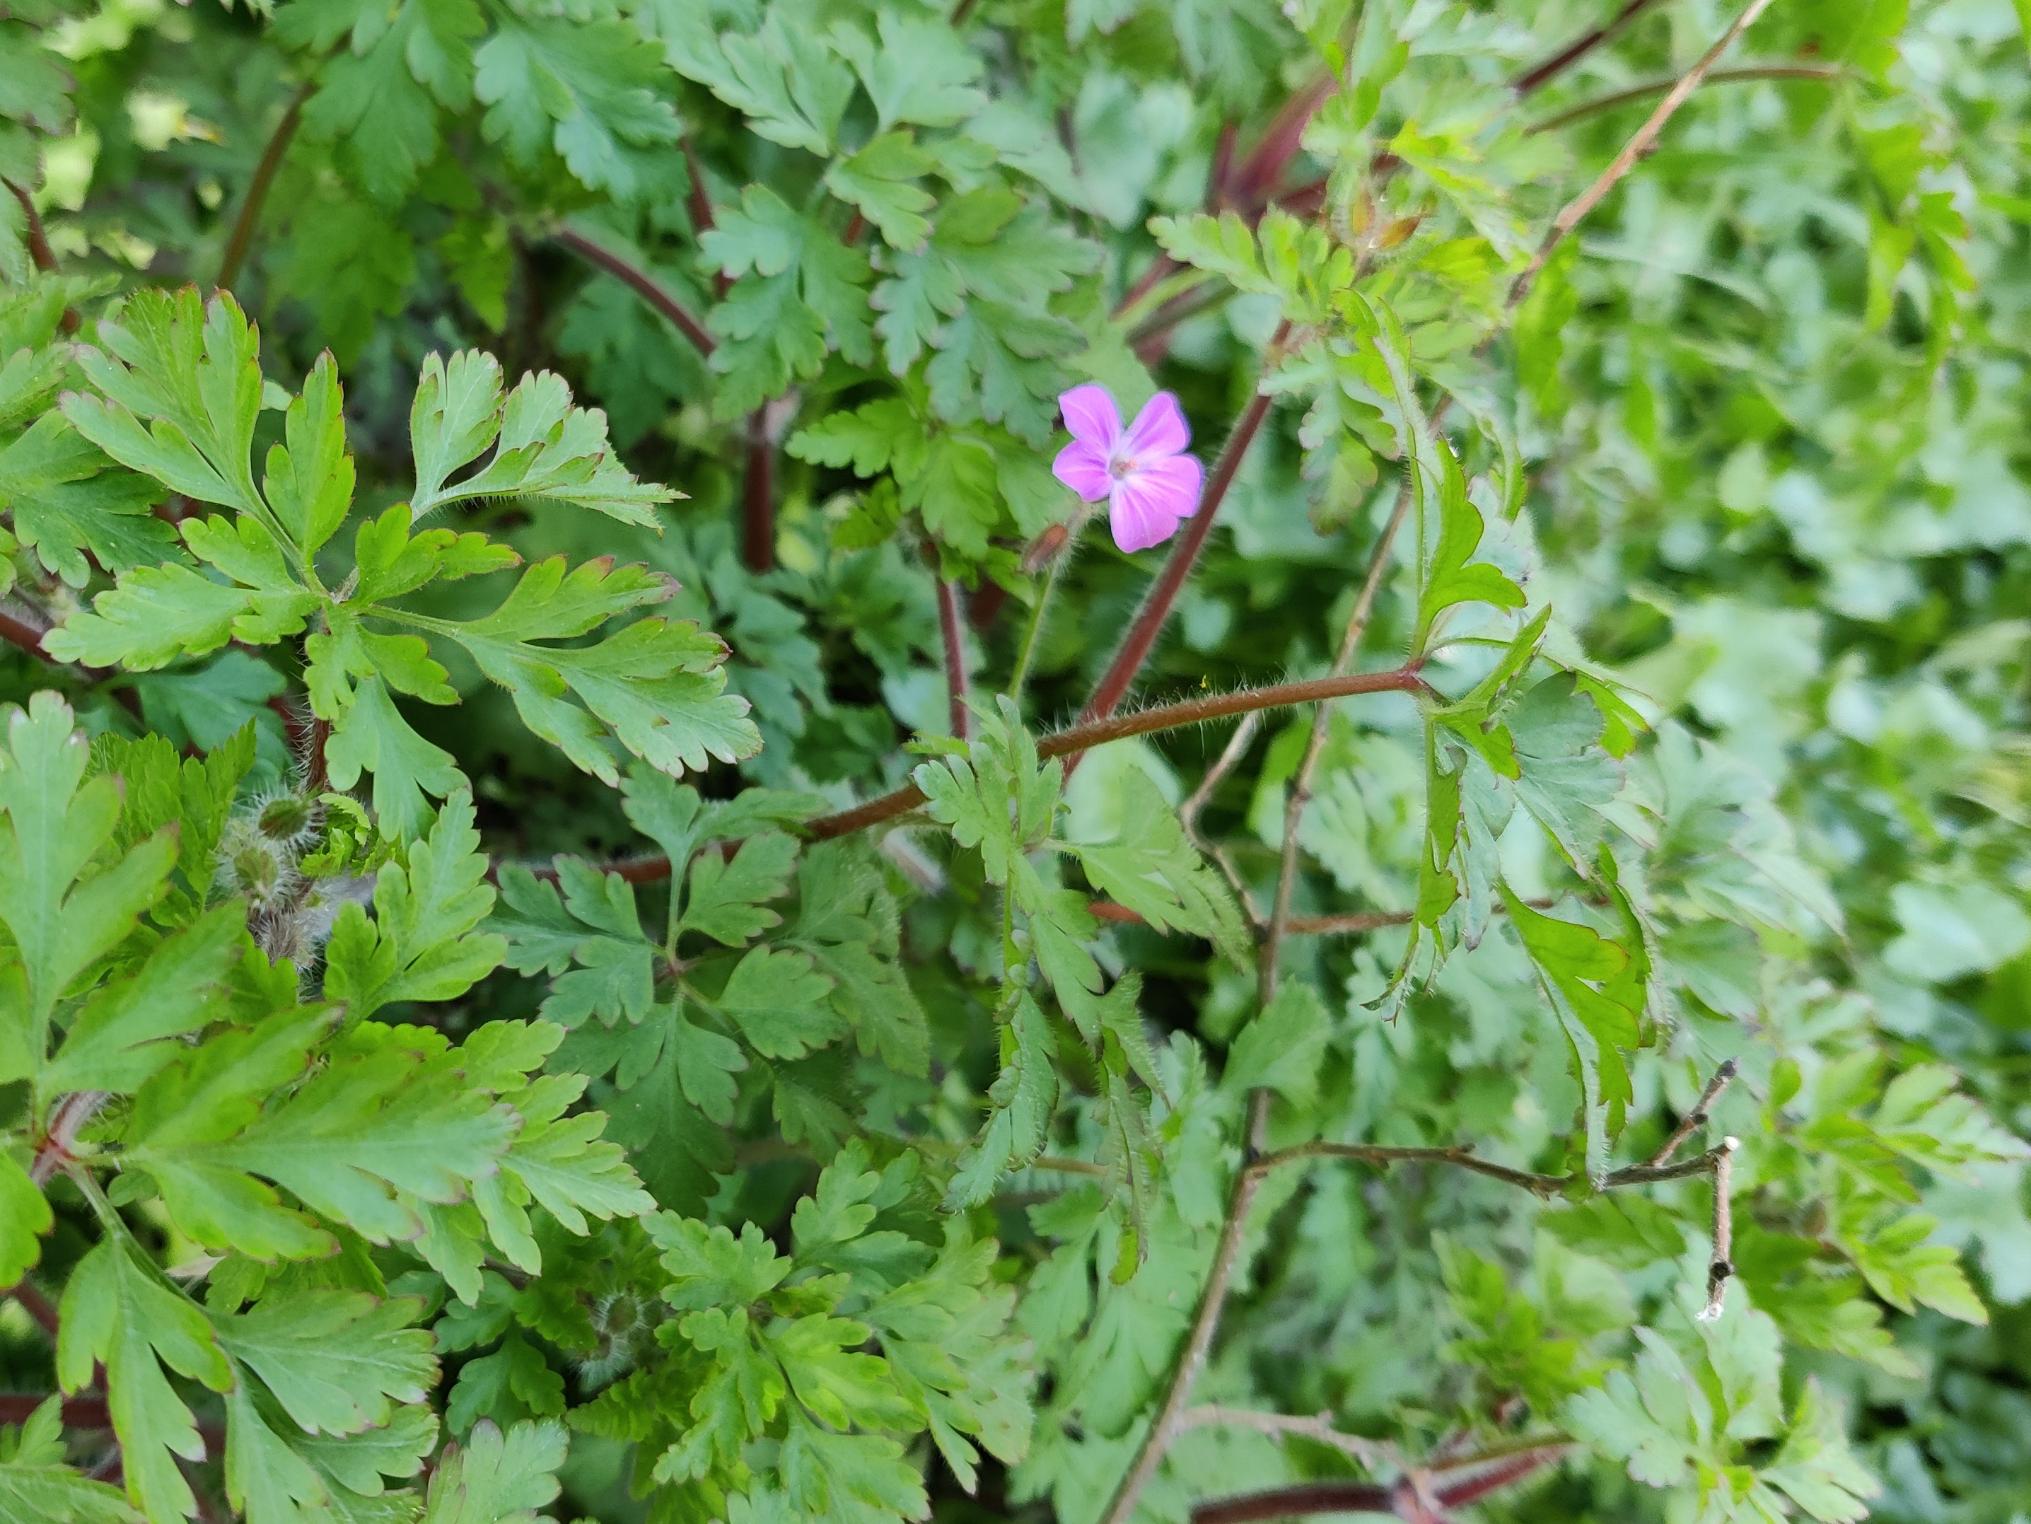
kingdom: Plantae
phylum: Tracheophyta
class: Magnoliopsida
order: Geraniales
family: Geraniaceae
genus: Geranium
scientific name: Geranium robertianum
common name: Stinkende storkenæb
